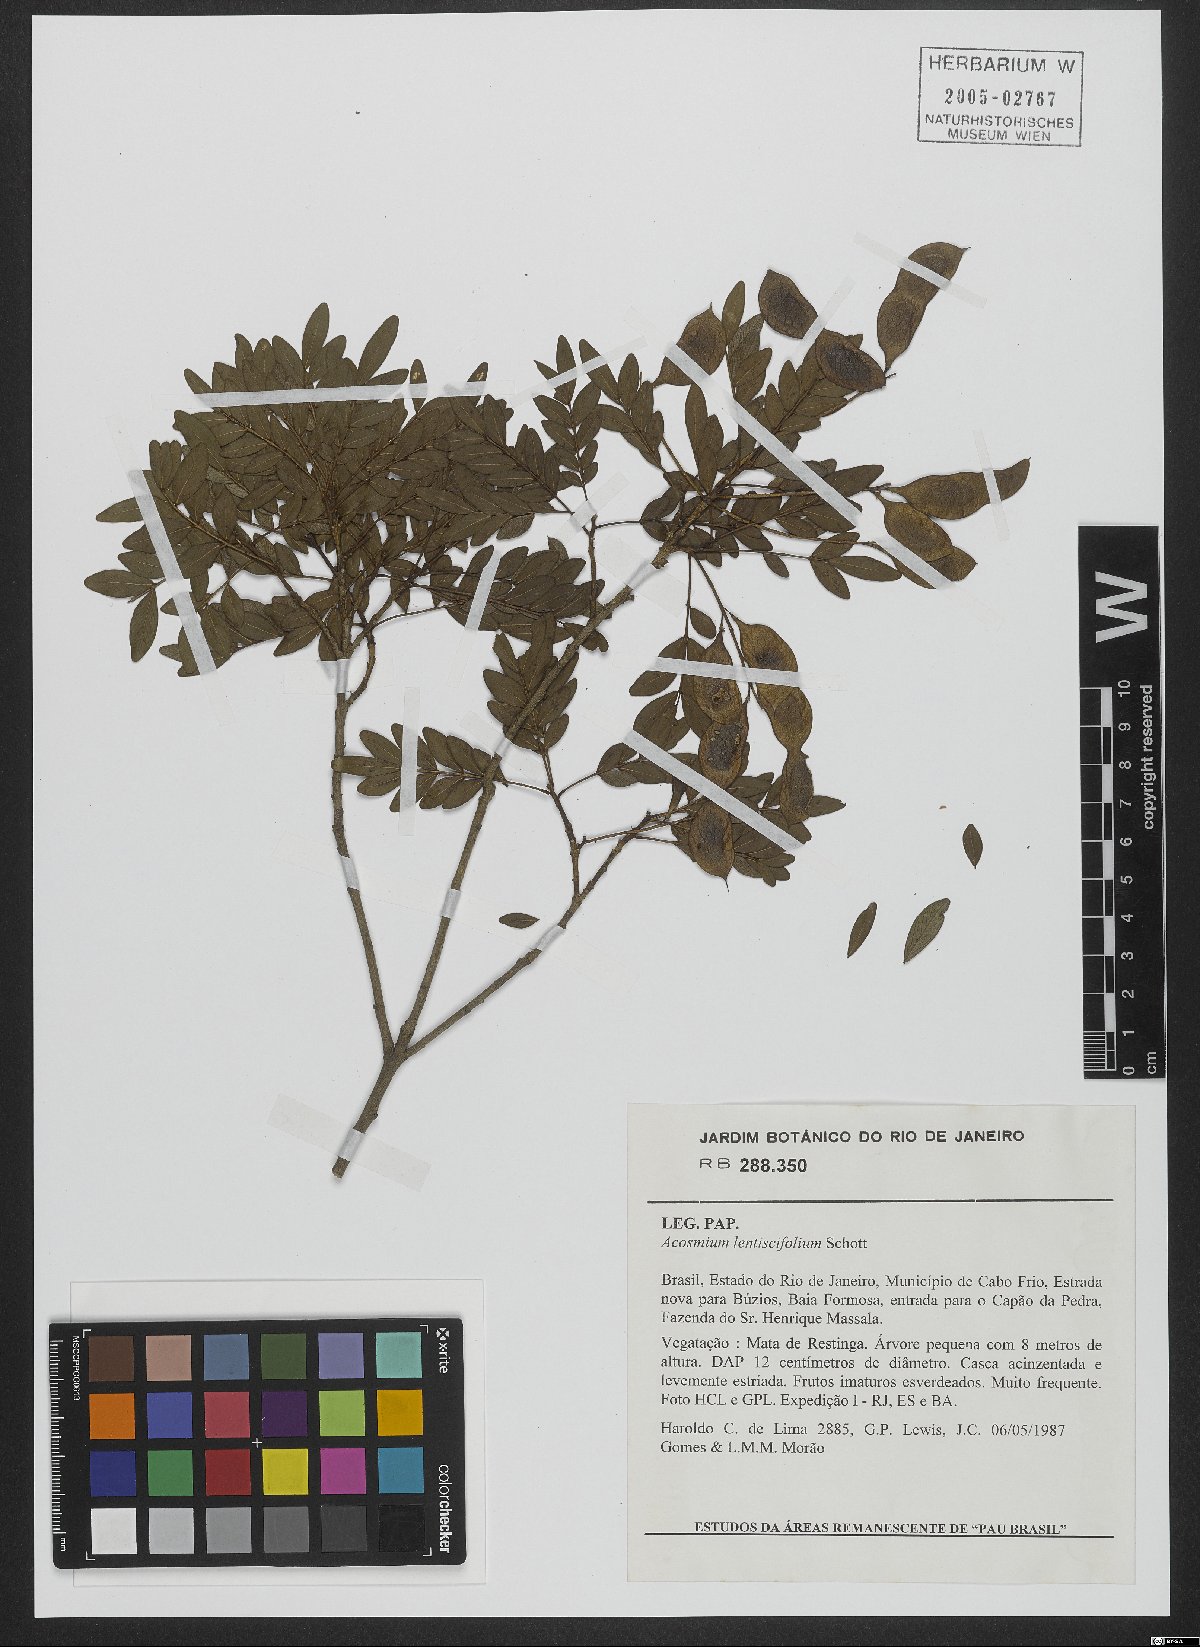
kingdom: Plantae
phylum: Tracheophyta
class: Magnoliopsida
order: Fabales
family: Fabaceae
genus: Acosmium
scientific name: Acosmium lentiscifolium
